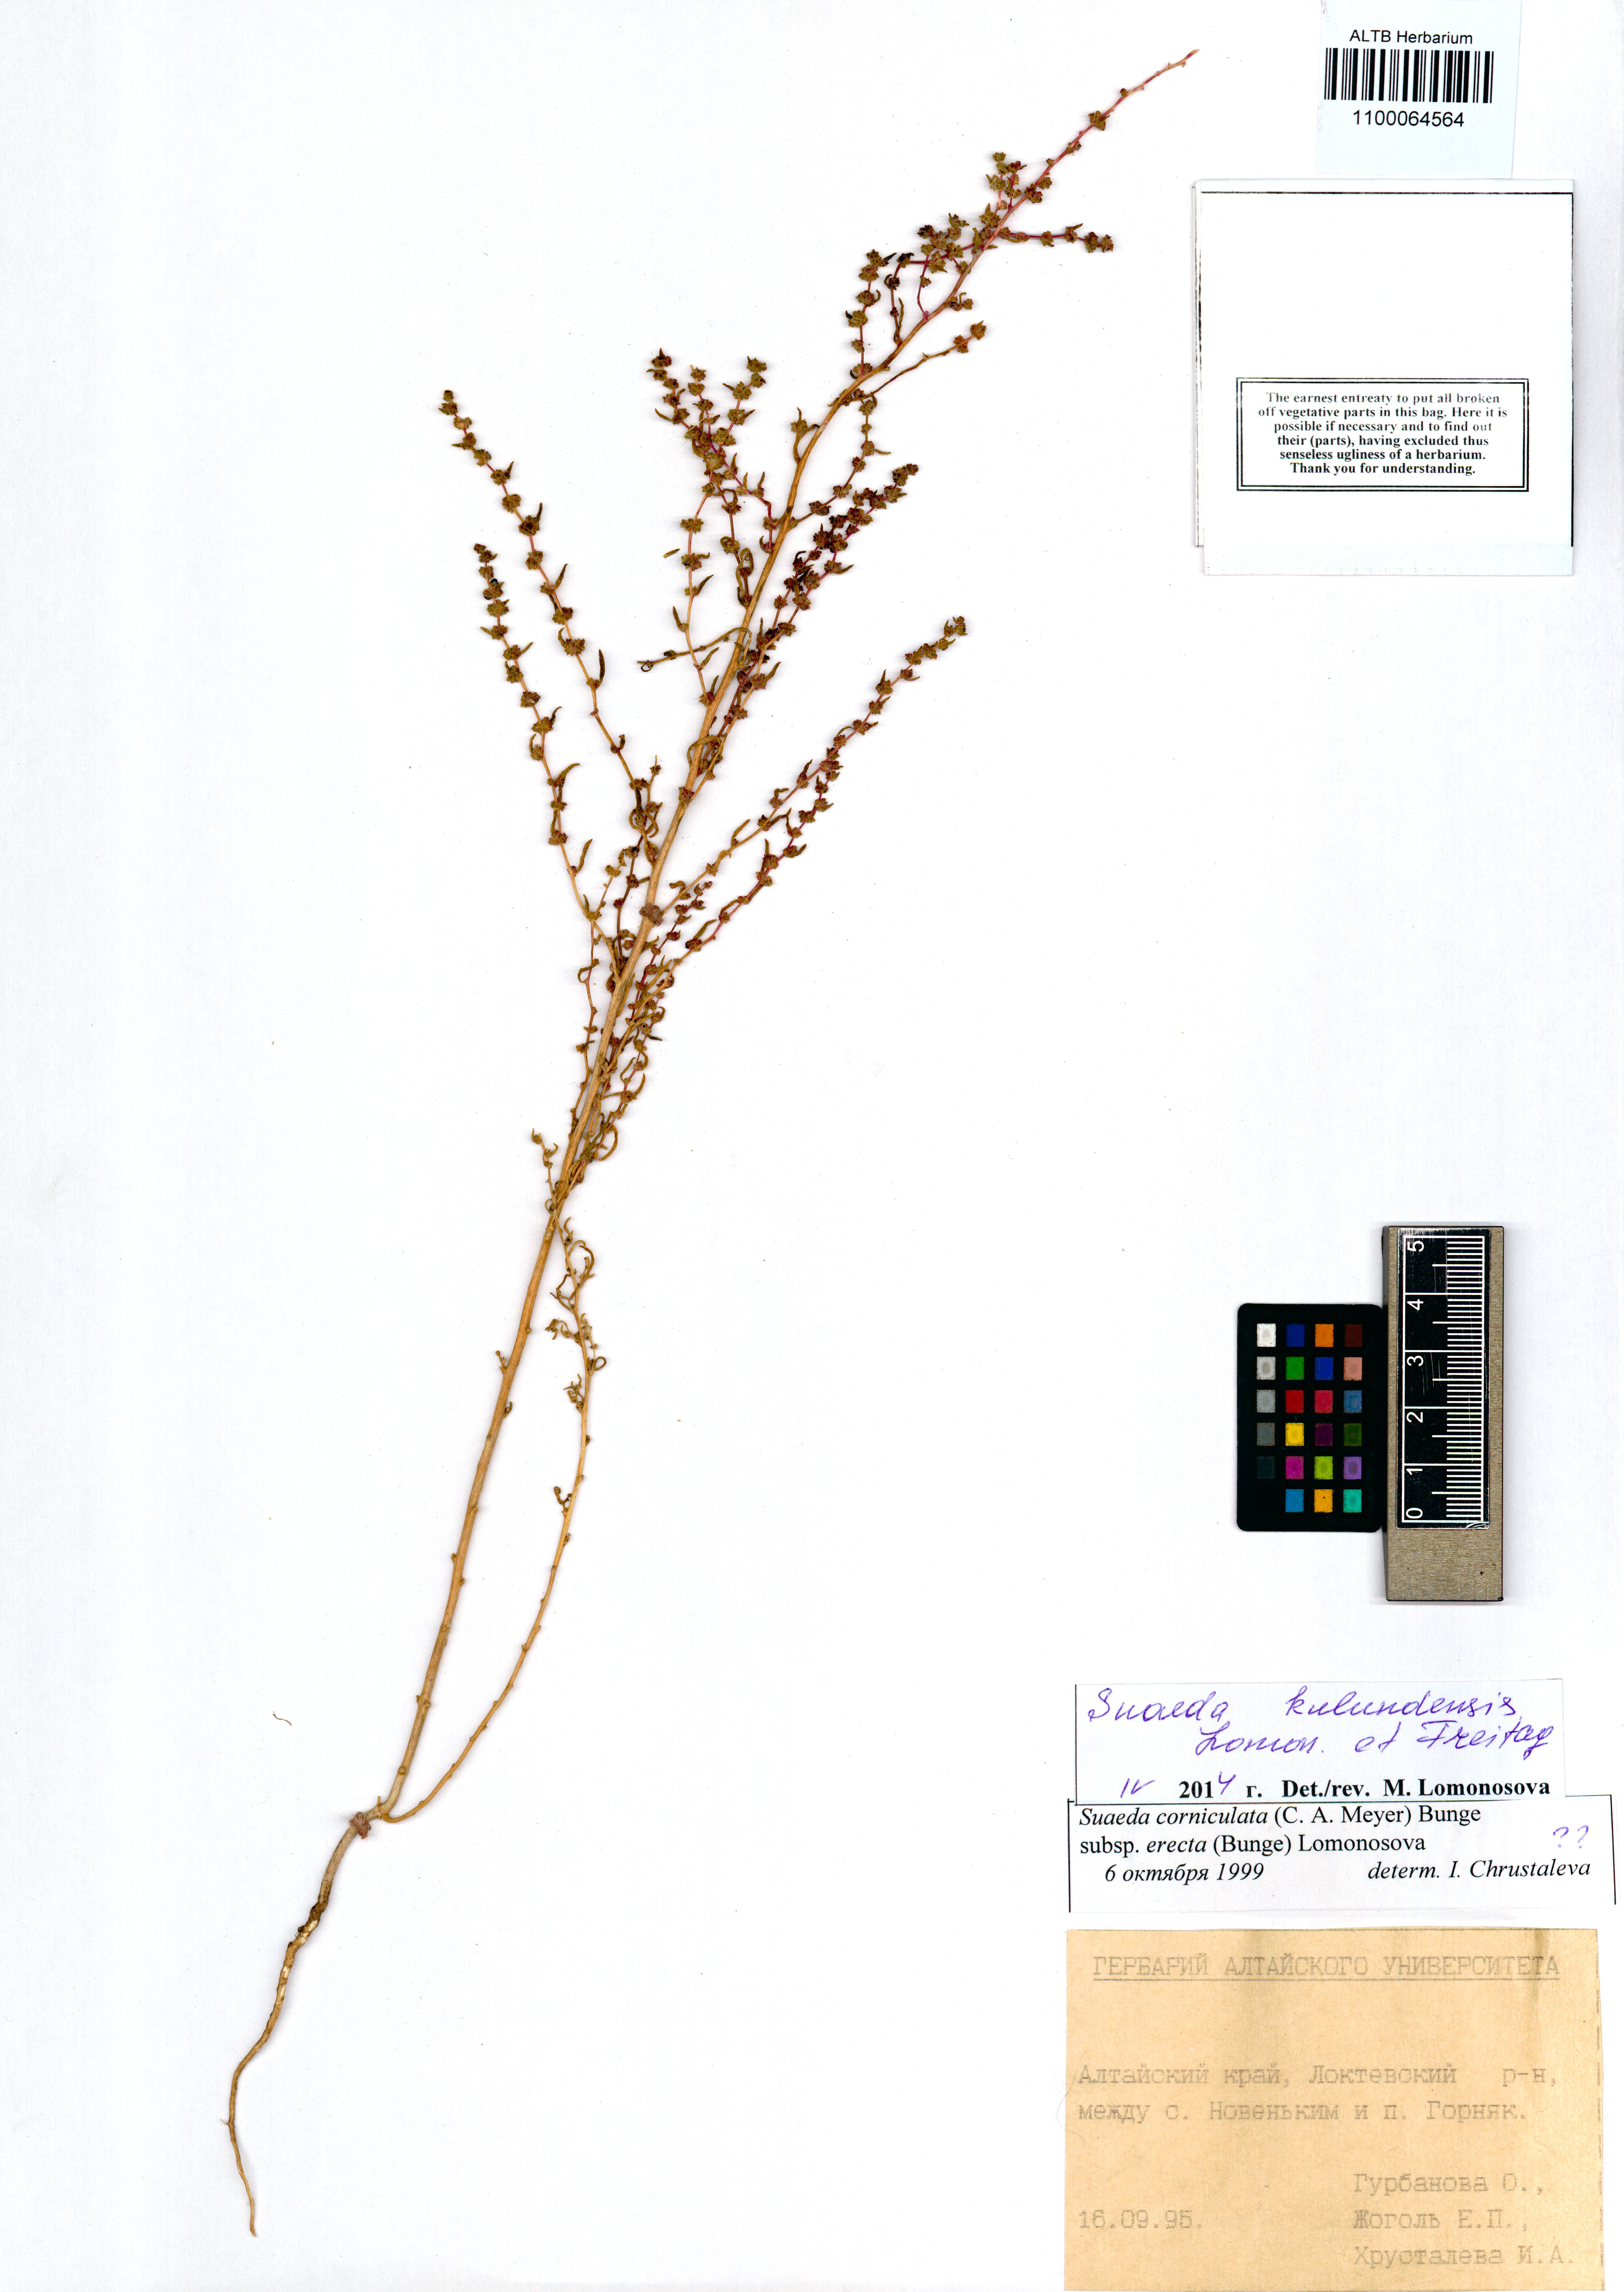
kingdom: Plantae
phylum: Tracheophyta
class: Magnoliopsida
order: Caryophyllales
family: Amaranthaceae
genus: Suaeda
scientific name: Suaeda kulundensis
